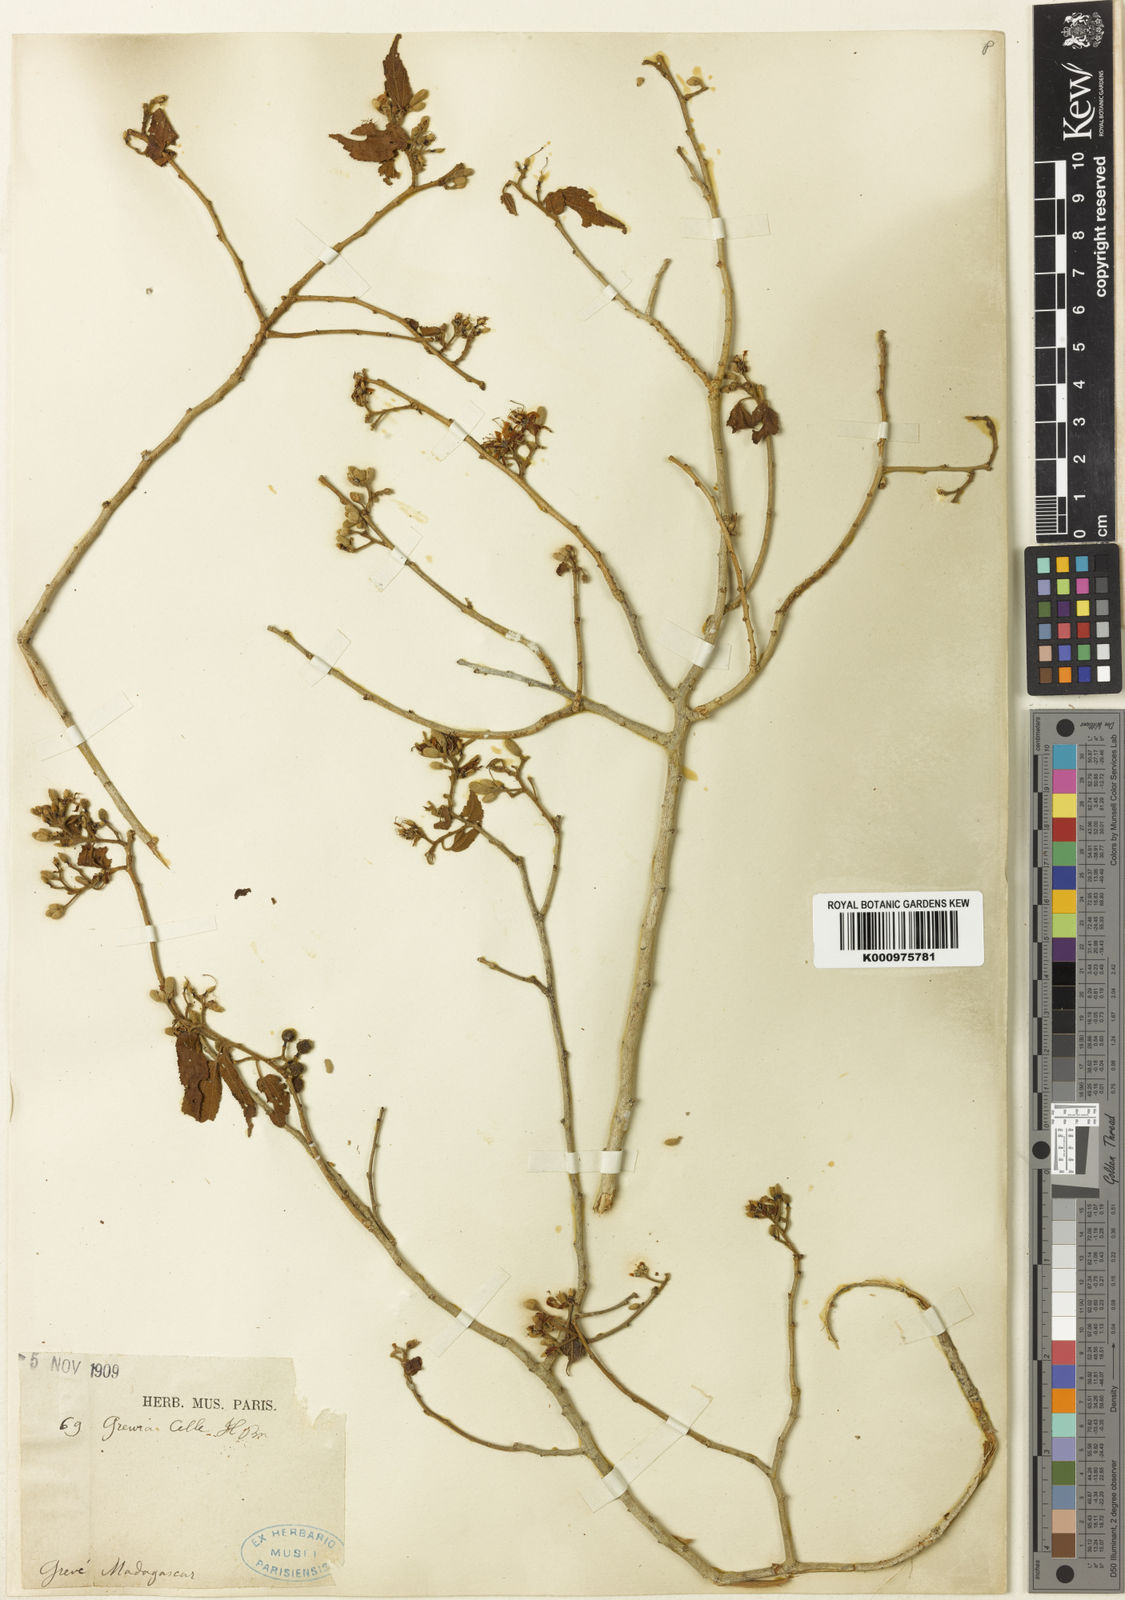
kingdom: Plantae
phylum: Tracheophyta
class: Magnoliopsida
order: Malvales
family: Malvaceae
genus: Grewia
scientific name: Grewia grandidieri
